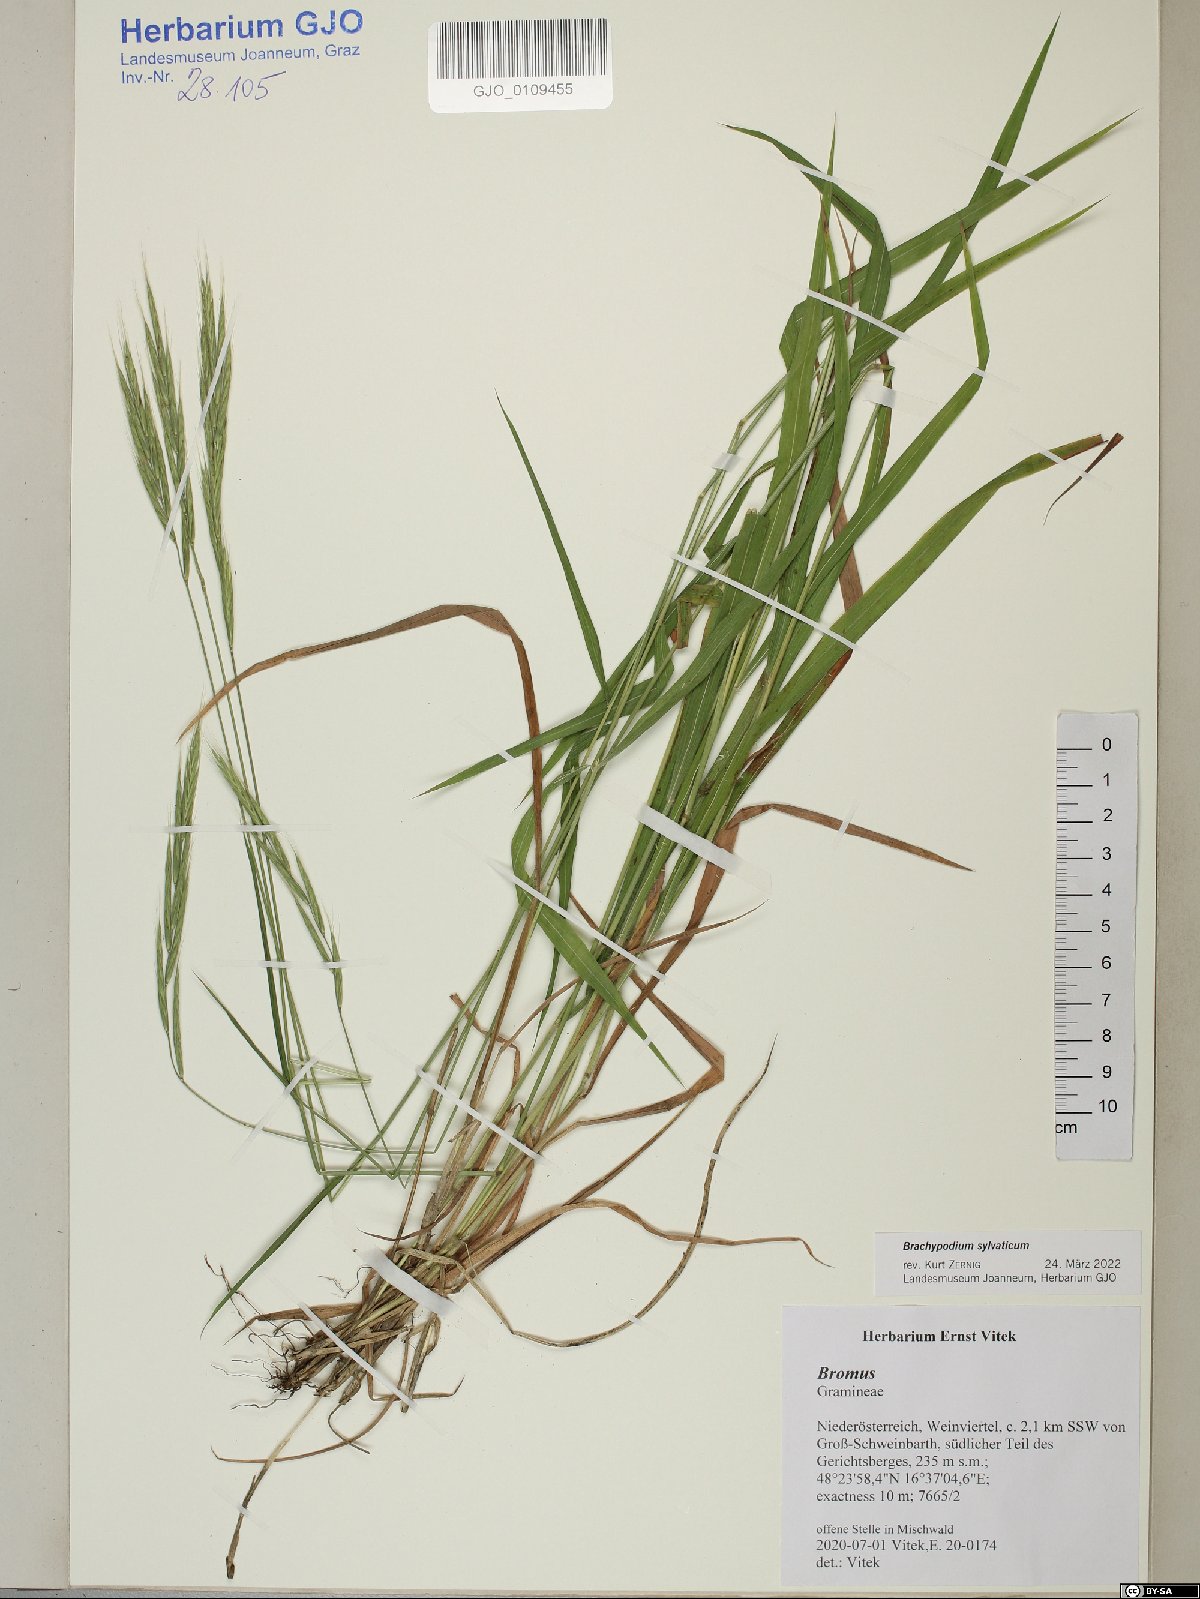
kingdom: Plantae
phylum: Tracheophyta
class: Liliopsida
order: Poales
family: Poaceae
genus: Brachypodium
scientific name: Brachypodium sylvaticum
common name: False-brome
